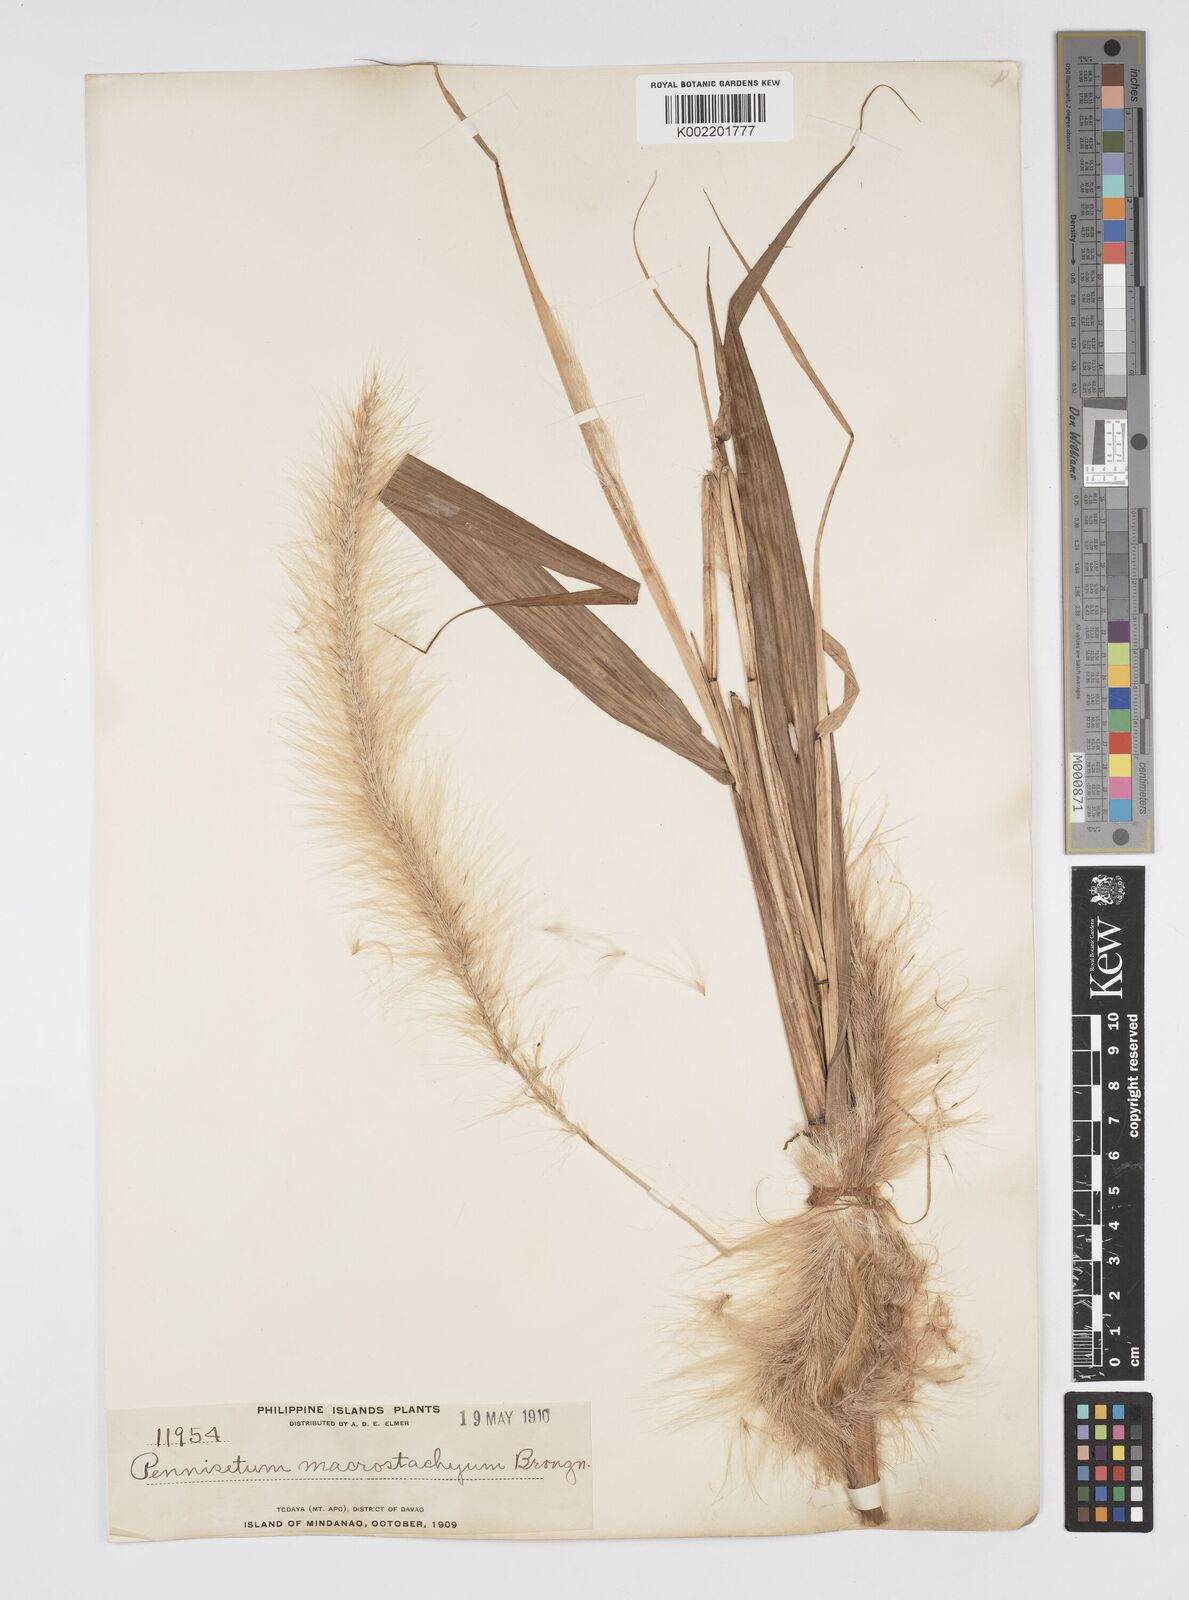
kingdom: Plantae
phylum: Tracheophyta
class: Liliopsida
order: Poales
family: Poaceae
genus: Cenchrus
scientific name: Cenchrus purpureus
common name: Elephant grass
